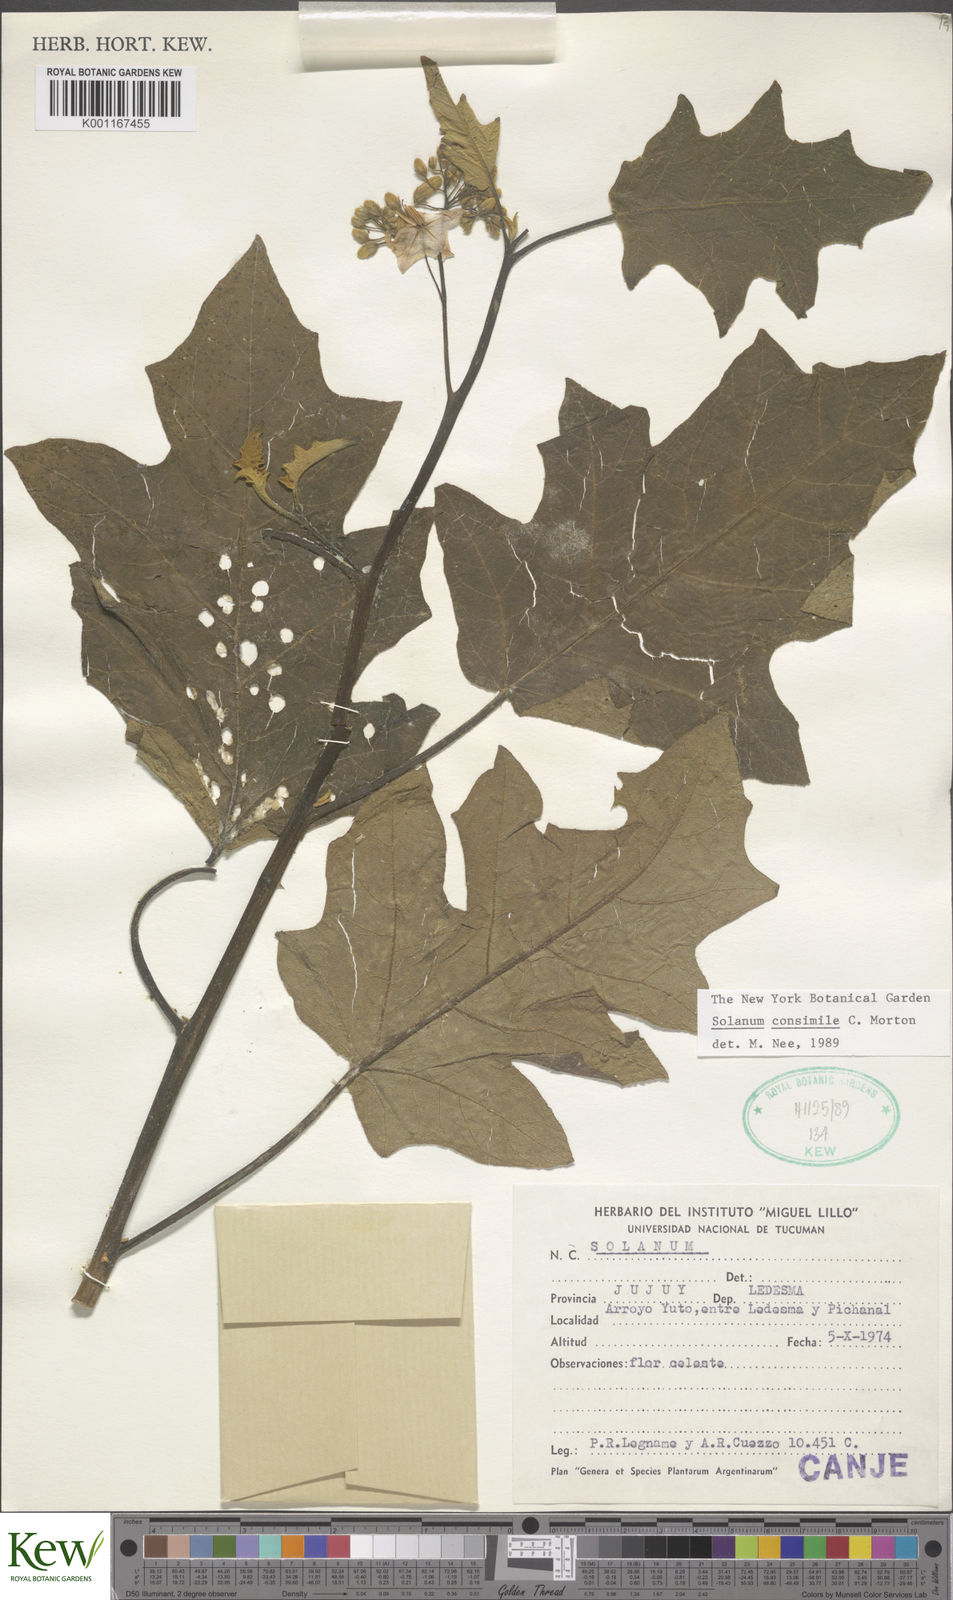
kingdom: Plantae
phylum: Tracheophyta
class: Magnoliopsida
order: Solanales
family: Solanaceae
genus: Solanum
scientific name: Solanum consimile
